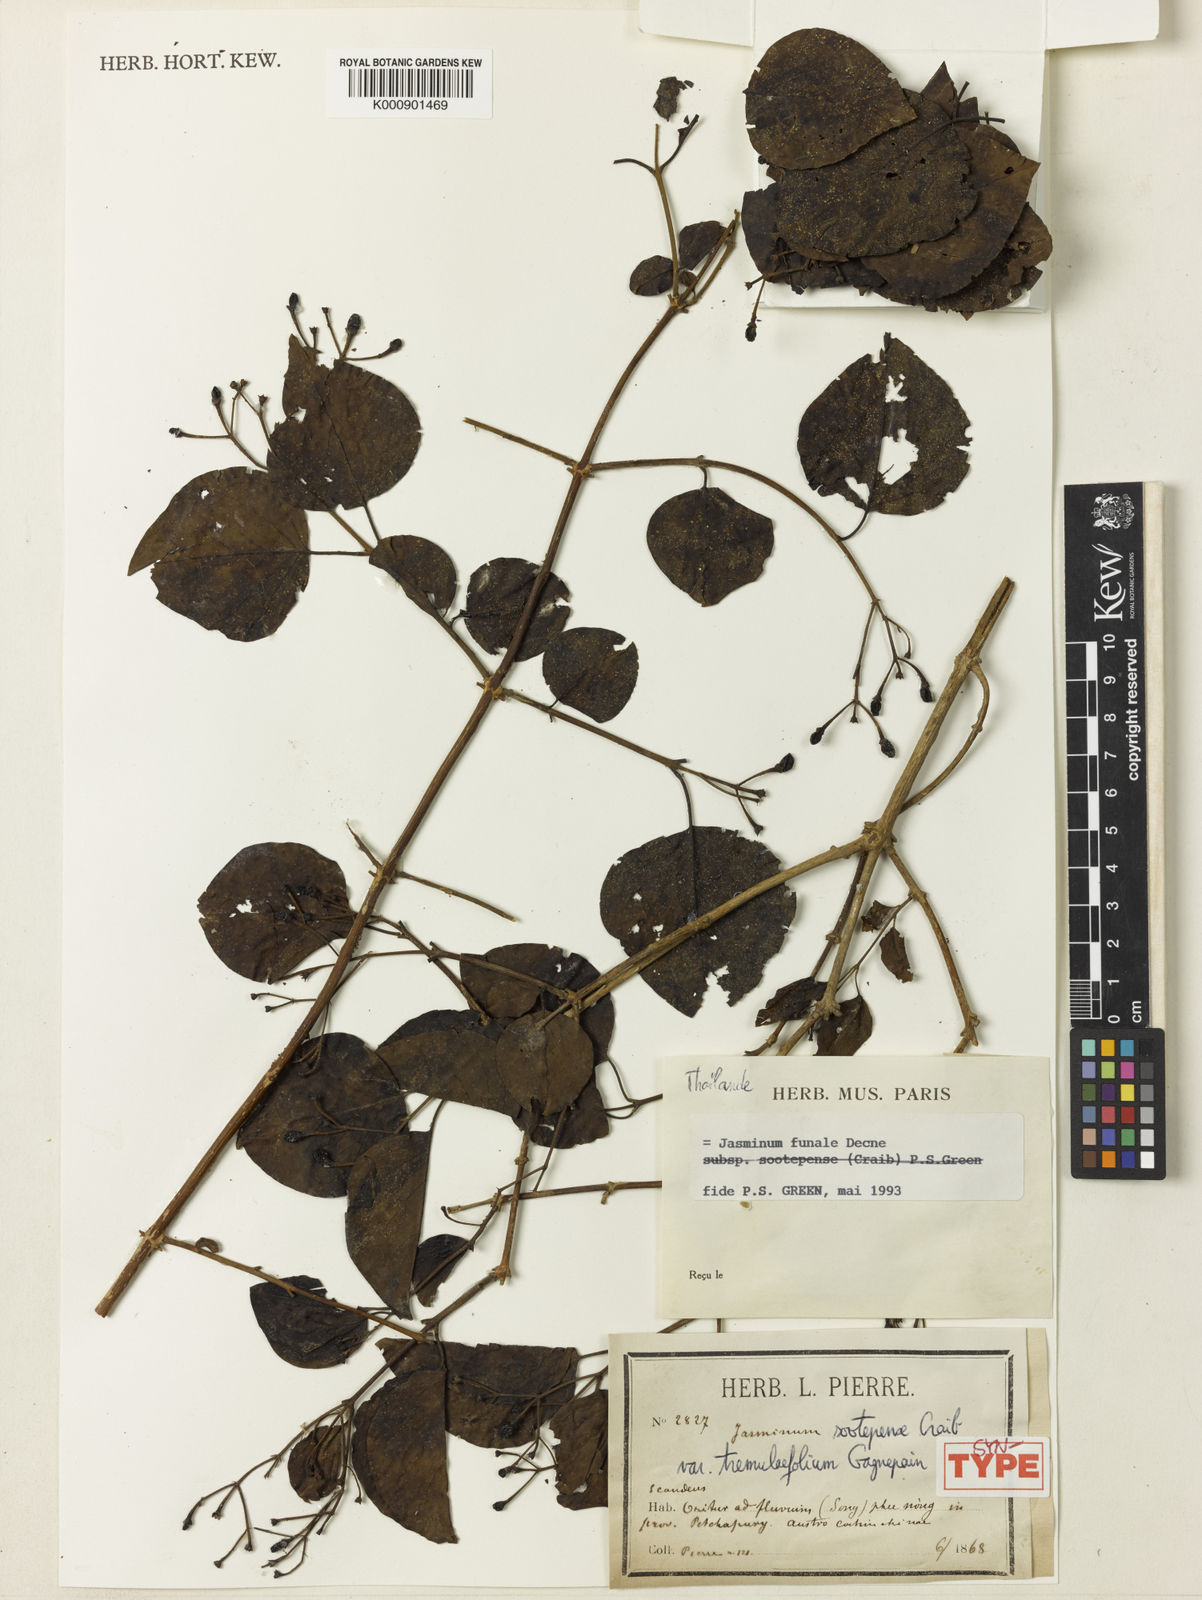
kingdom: Plantae
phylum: Tracheophyta
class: Magnoliopsida
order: Lamiales
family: Oleaceae
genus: Jasminum
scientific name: Jasminum simplicifolium
